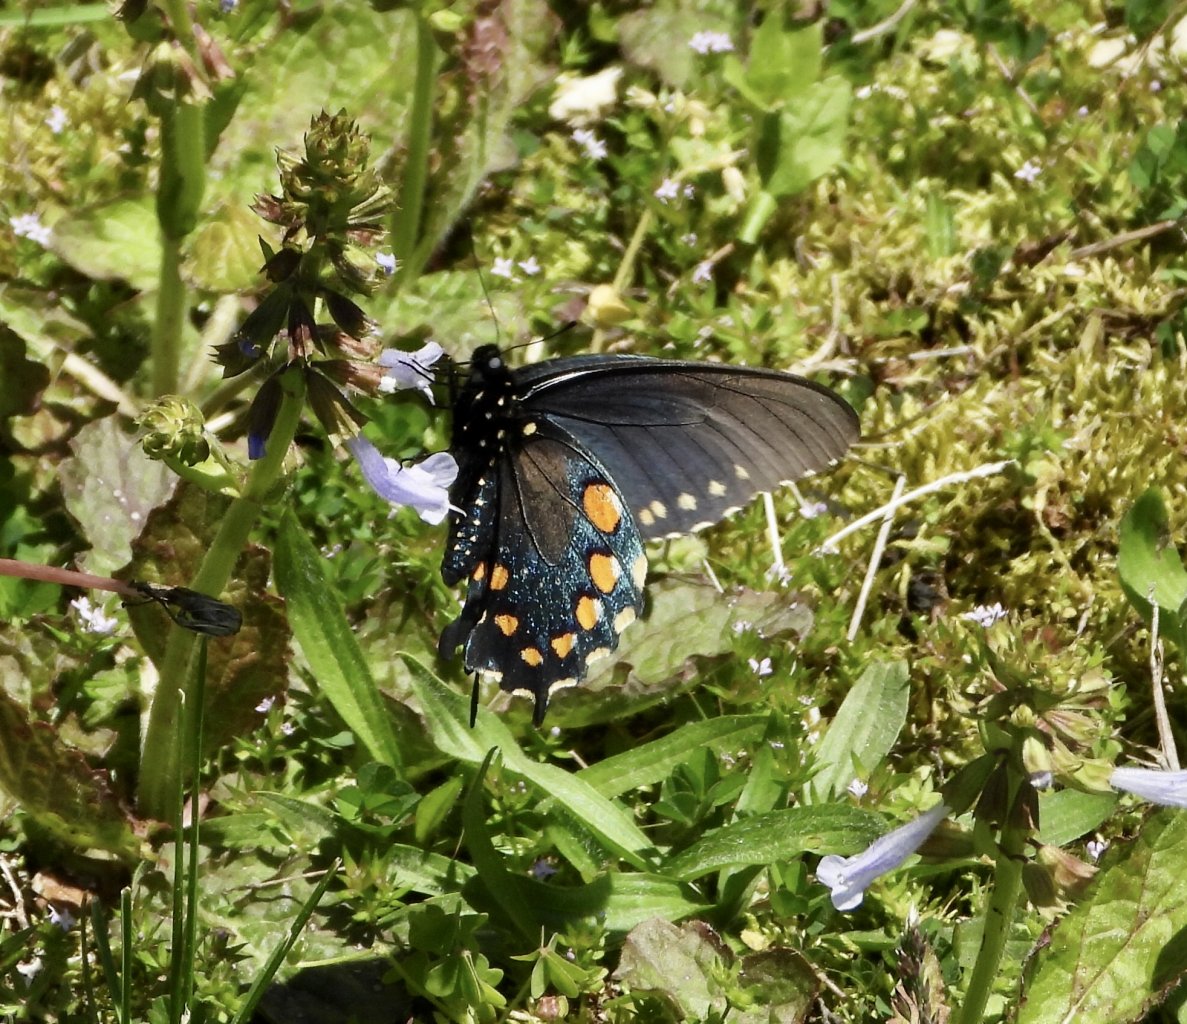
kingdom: Animalia
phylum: Arthropoda
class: Insecta
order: Lepidoptera
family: Papilionidae
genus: Battus
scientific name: Battus philenor
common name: Pipevine Swallowtail
